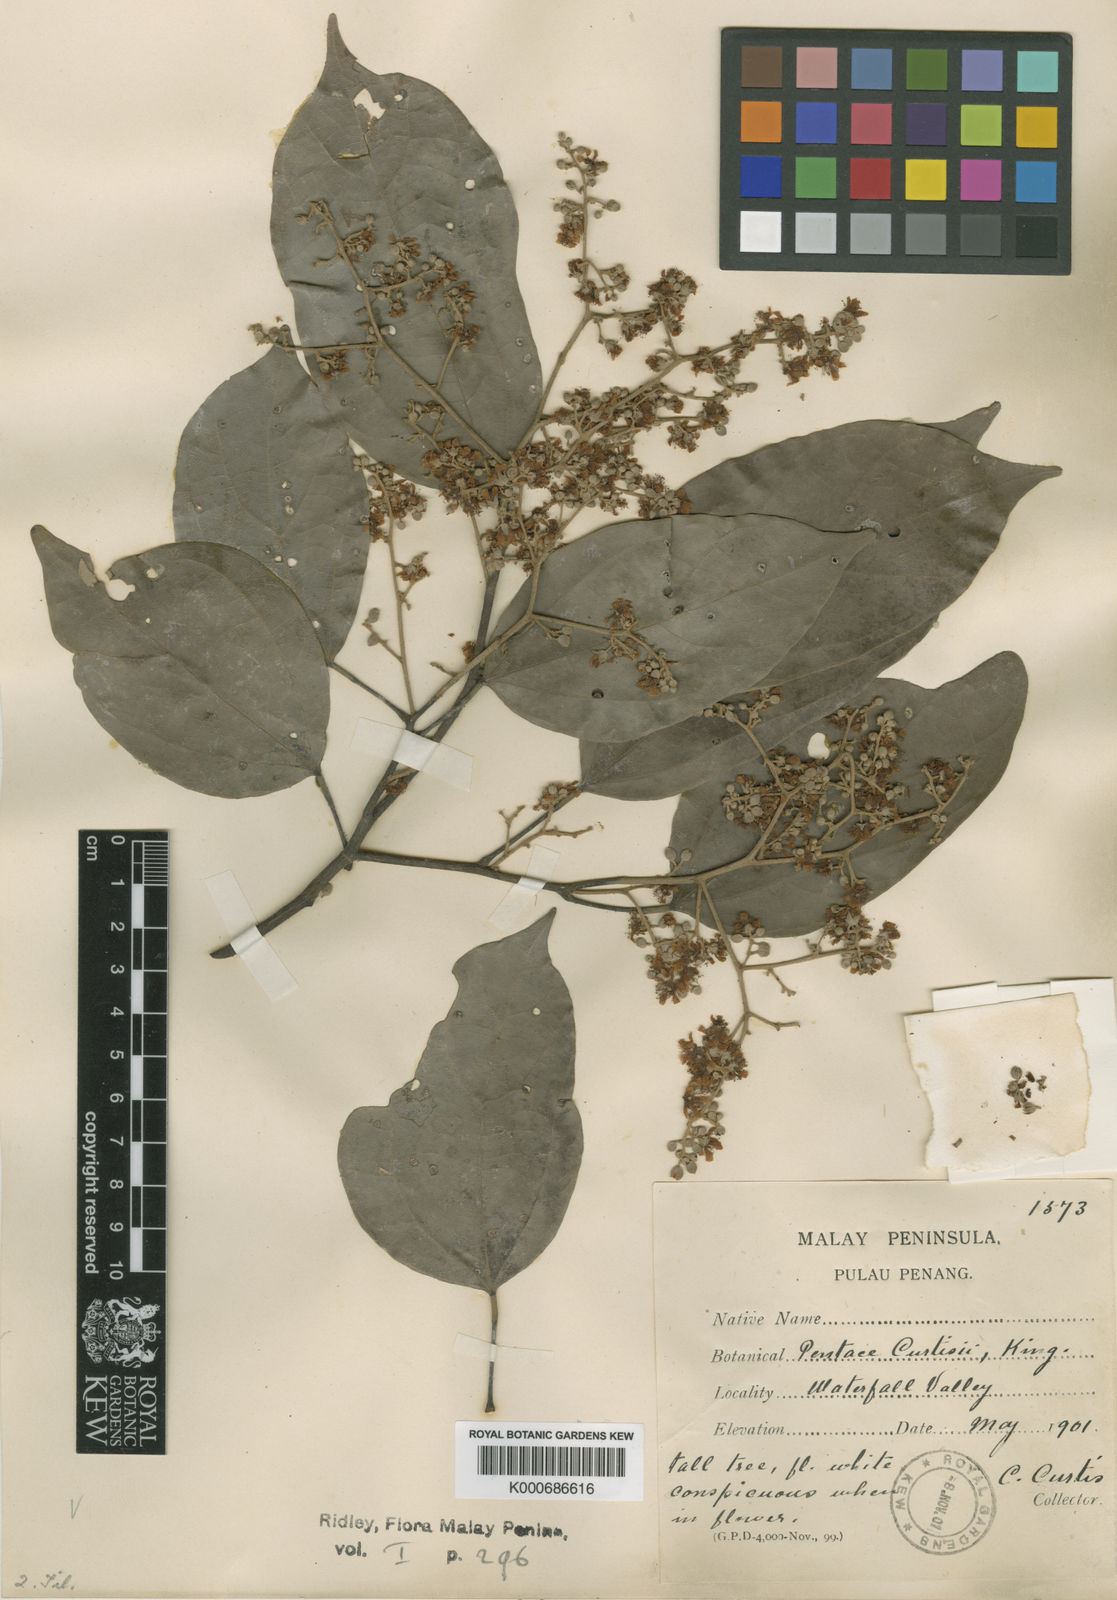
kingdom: Plantae
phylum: Tracheophyta
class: Magnoliopsida
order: Malvales
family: Malvaceae
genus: Pentace
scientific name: Pentace curtisii
